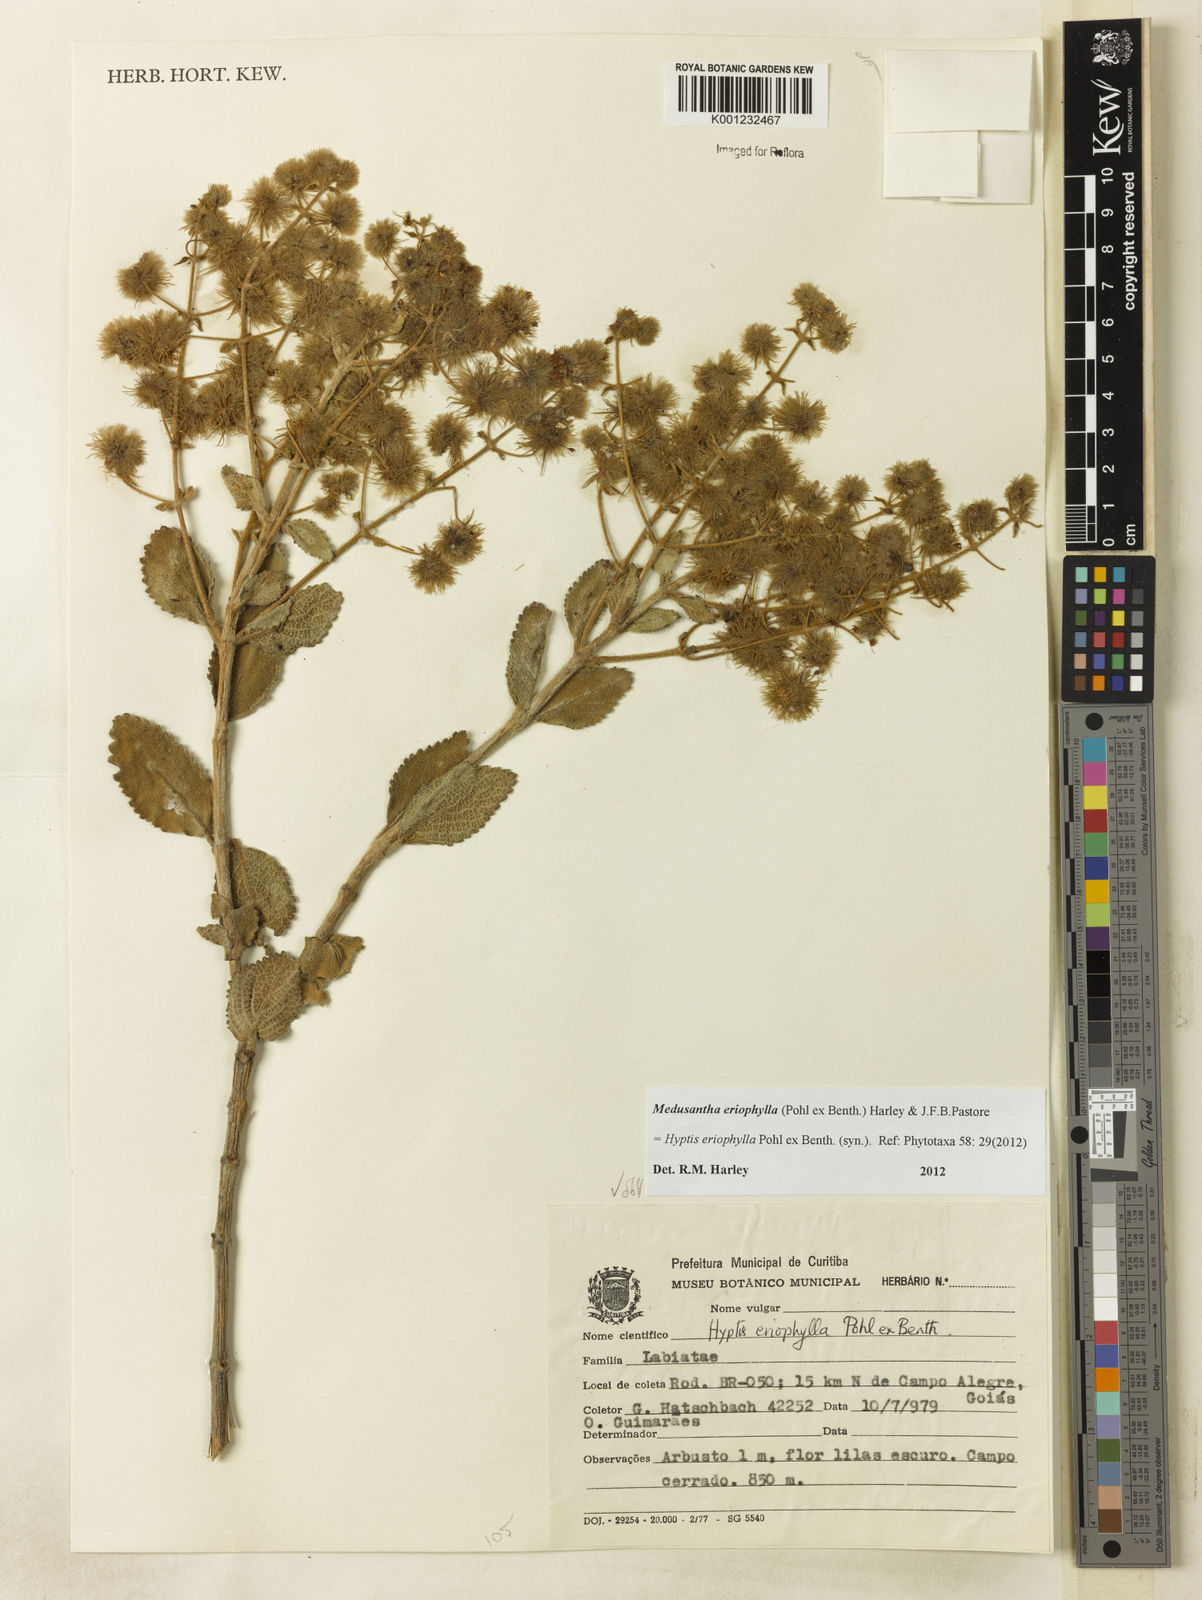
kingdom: Plantae
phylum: Tracheophyta
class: Magnoliopsida
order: Lamiales
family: Lamiaceae
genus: Medusantha
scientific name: Medusantha eriophylla
